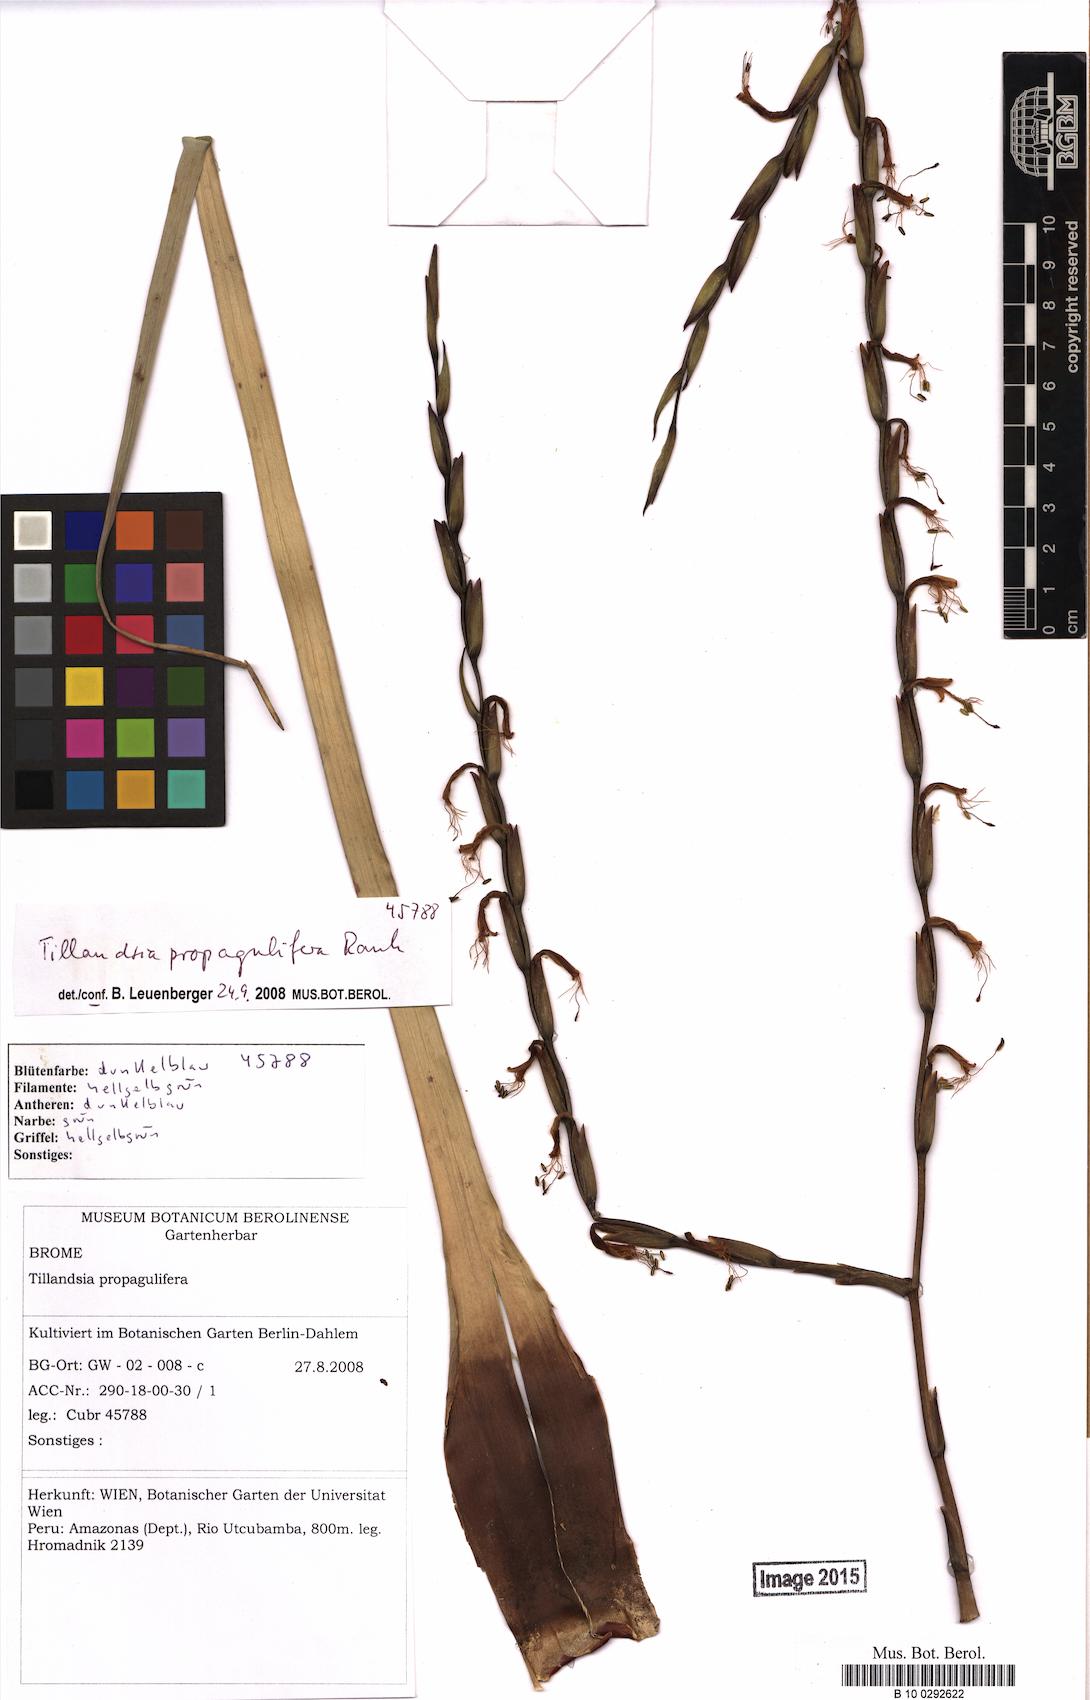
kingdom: Plantae
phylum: Tracheophyta
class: Liliopsida
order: Poales
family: Bromeliaceae
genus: Tillandsia
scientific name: Tillandsia propagulifera
